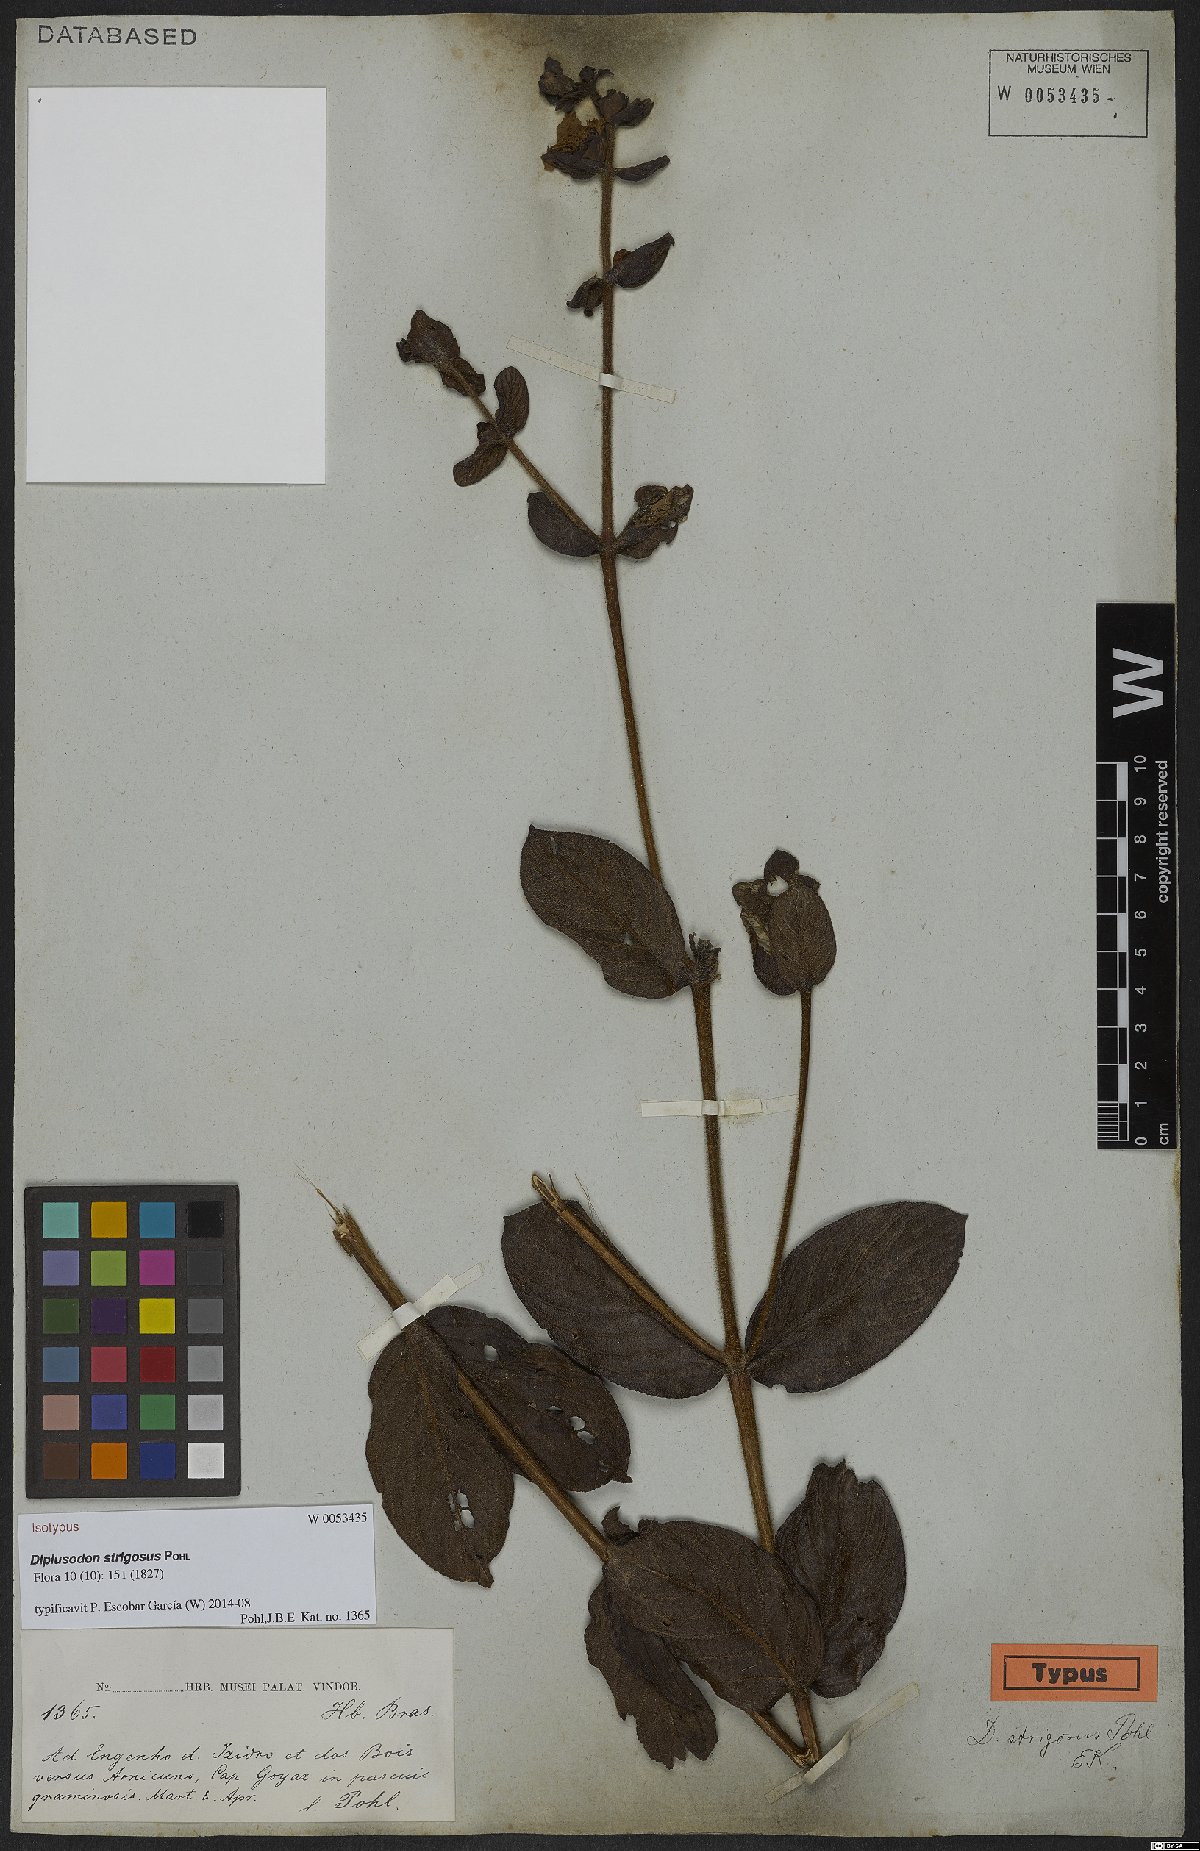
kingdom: Plantae
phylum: Tracheophyta
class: Magnoliopsida
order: Myrtales
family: Lythraceae
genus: Diplusodon
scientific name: Diplusodon strigosus
